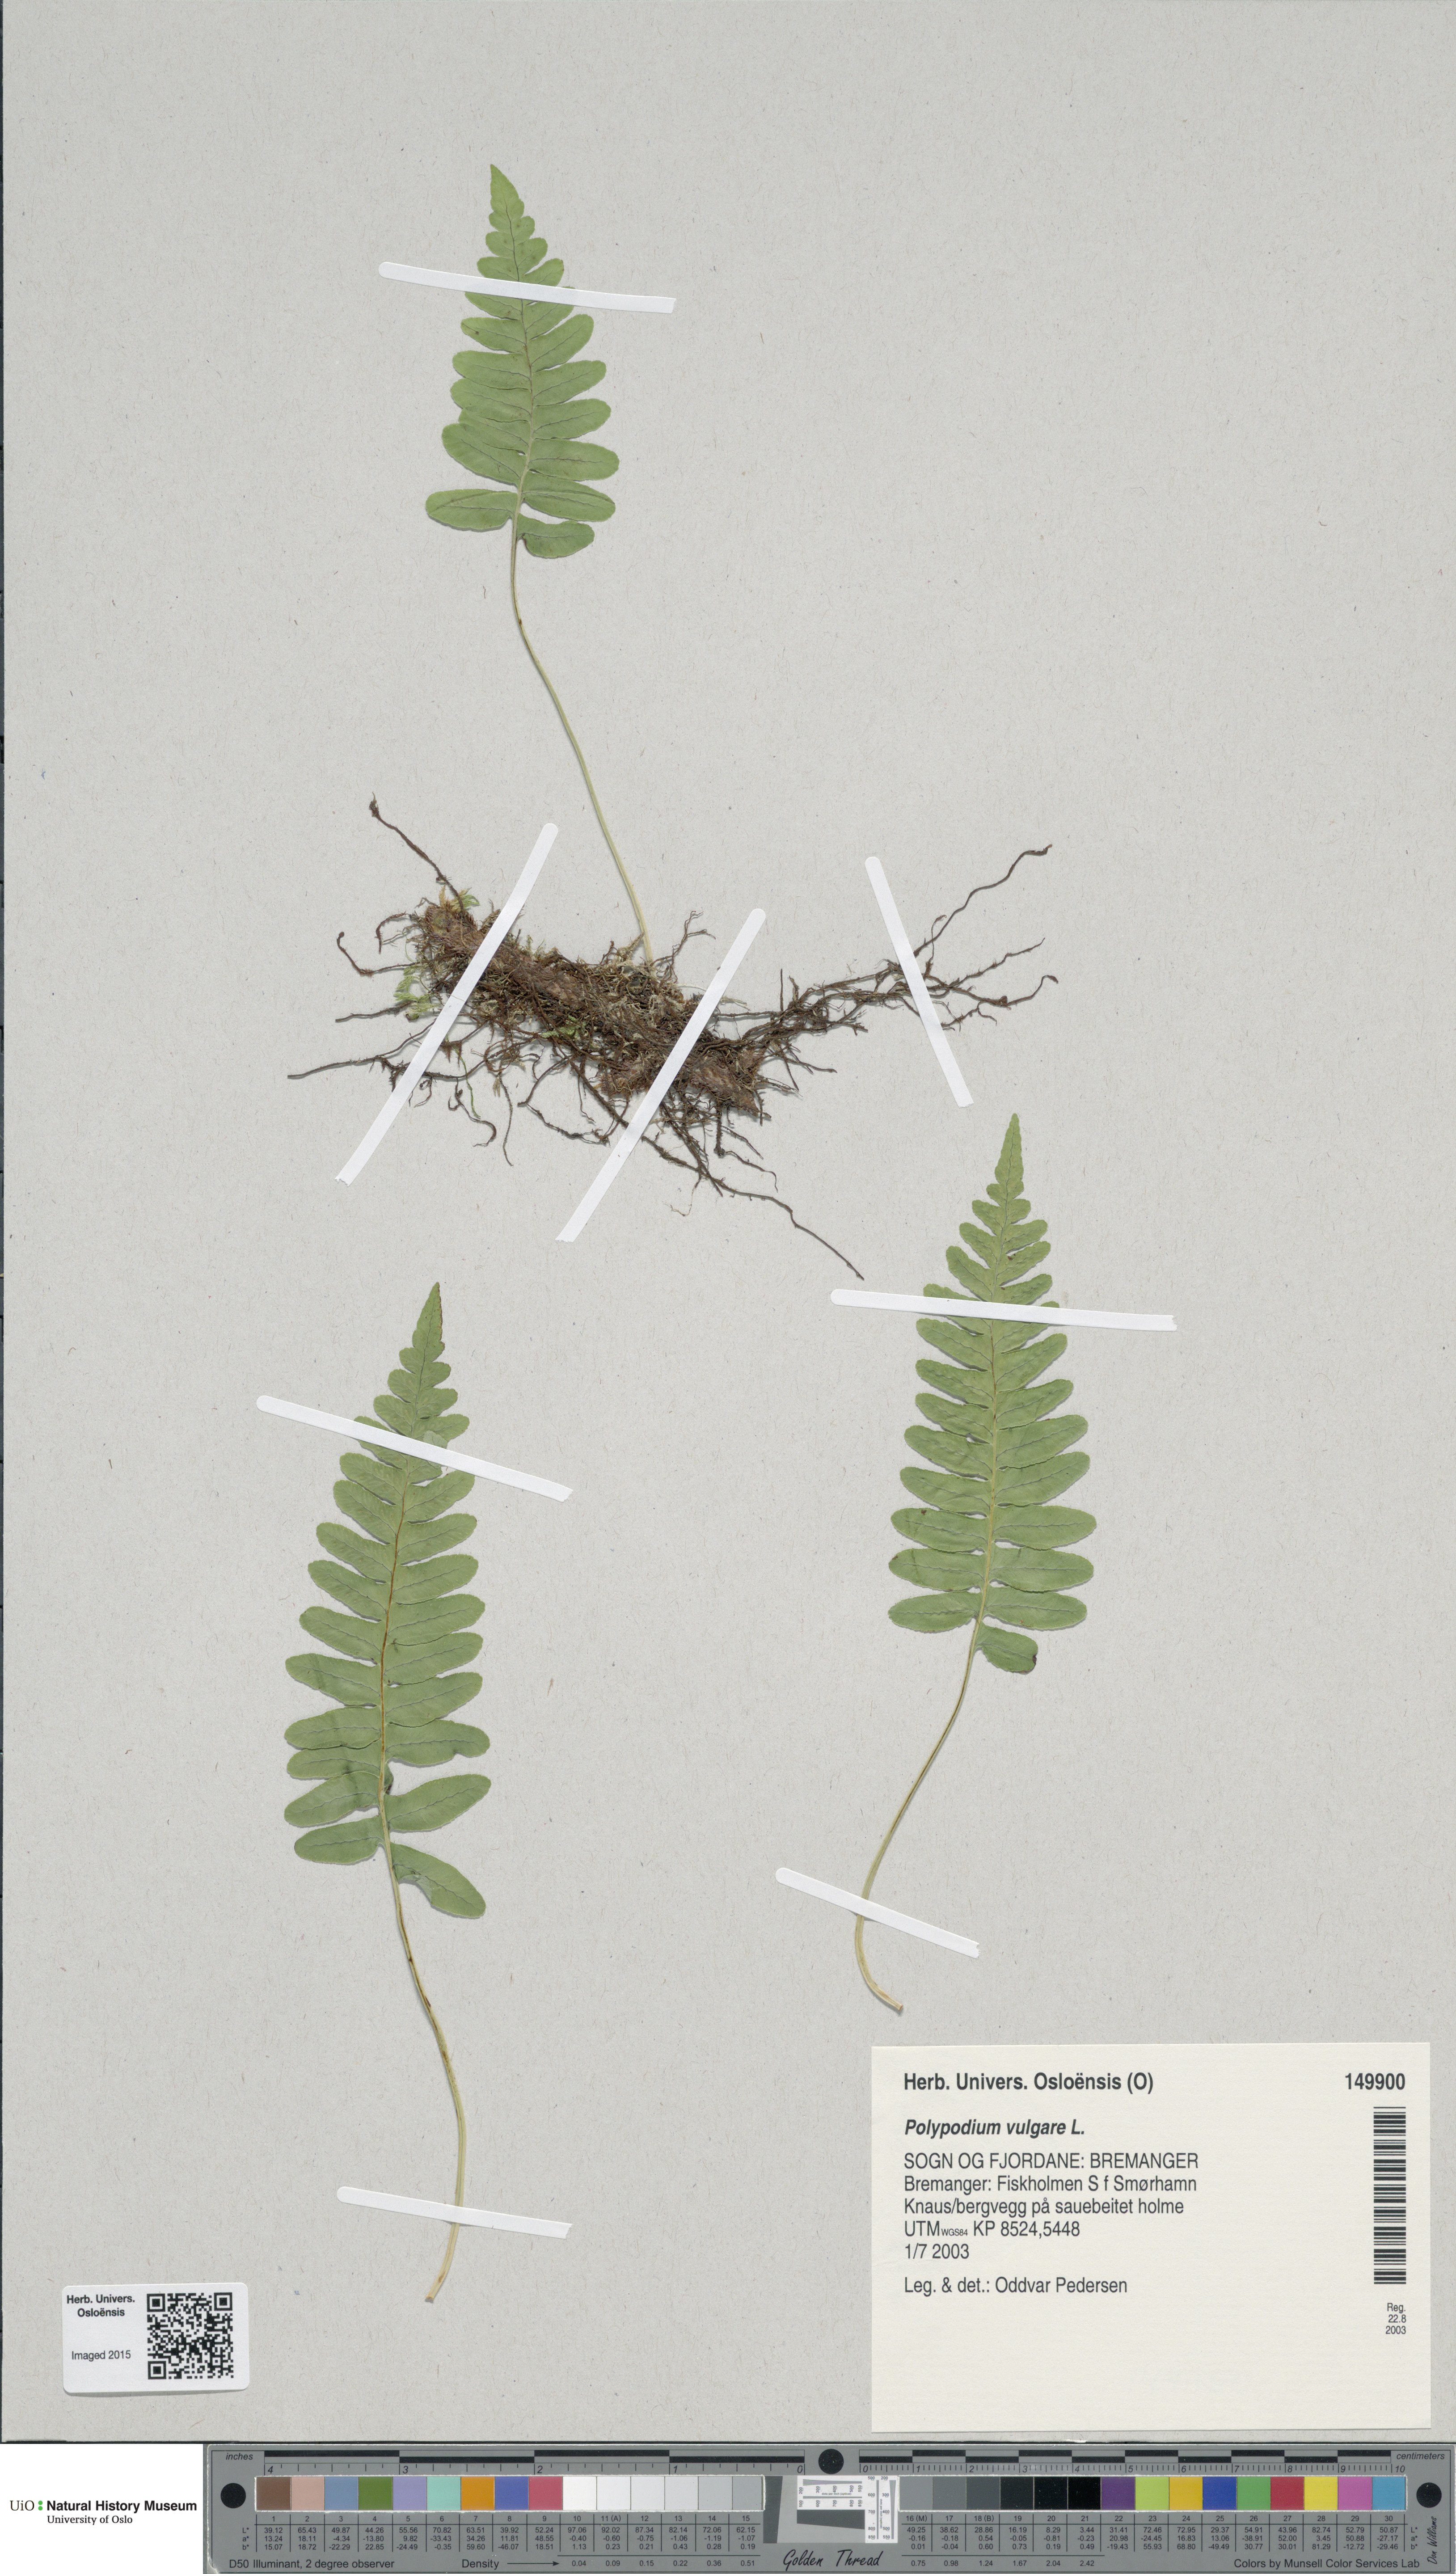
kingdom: Plantae
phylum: Tracheophyta
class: Polypodiopsida
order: Polypodiales
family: Polypodiaceae
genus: Polypodium
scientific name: Polypodium vulgare
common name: Common polypody
